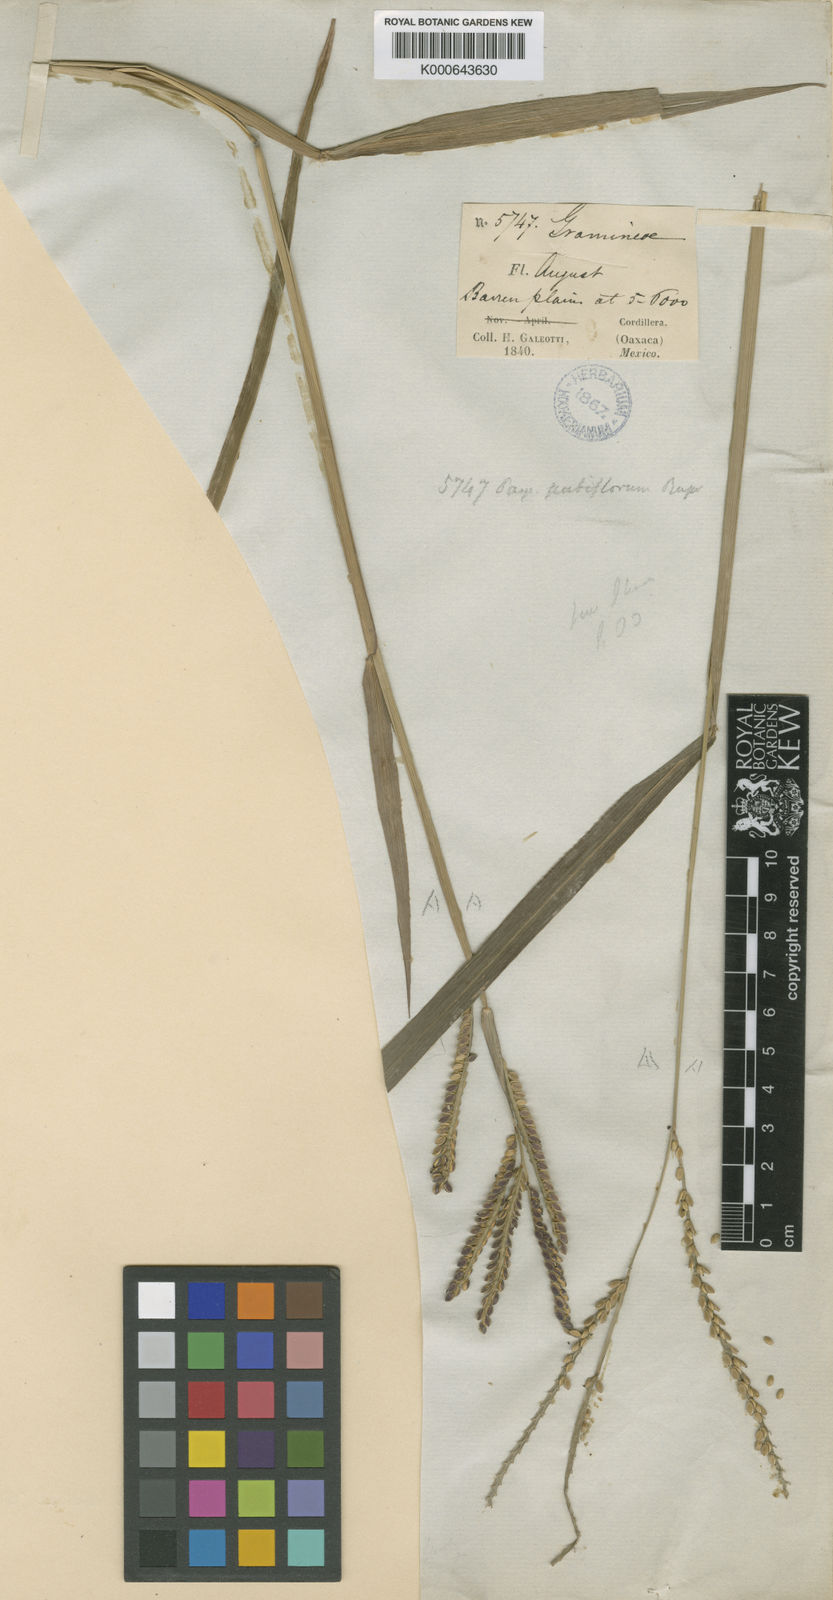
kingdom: Plantae
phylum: Tracheophyta
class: Liliopsida
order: Poales
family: Poaceae
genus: Paspalum
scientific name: Paspalum pubiflorum
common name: Hairy-seed paspalum
